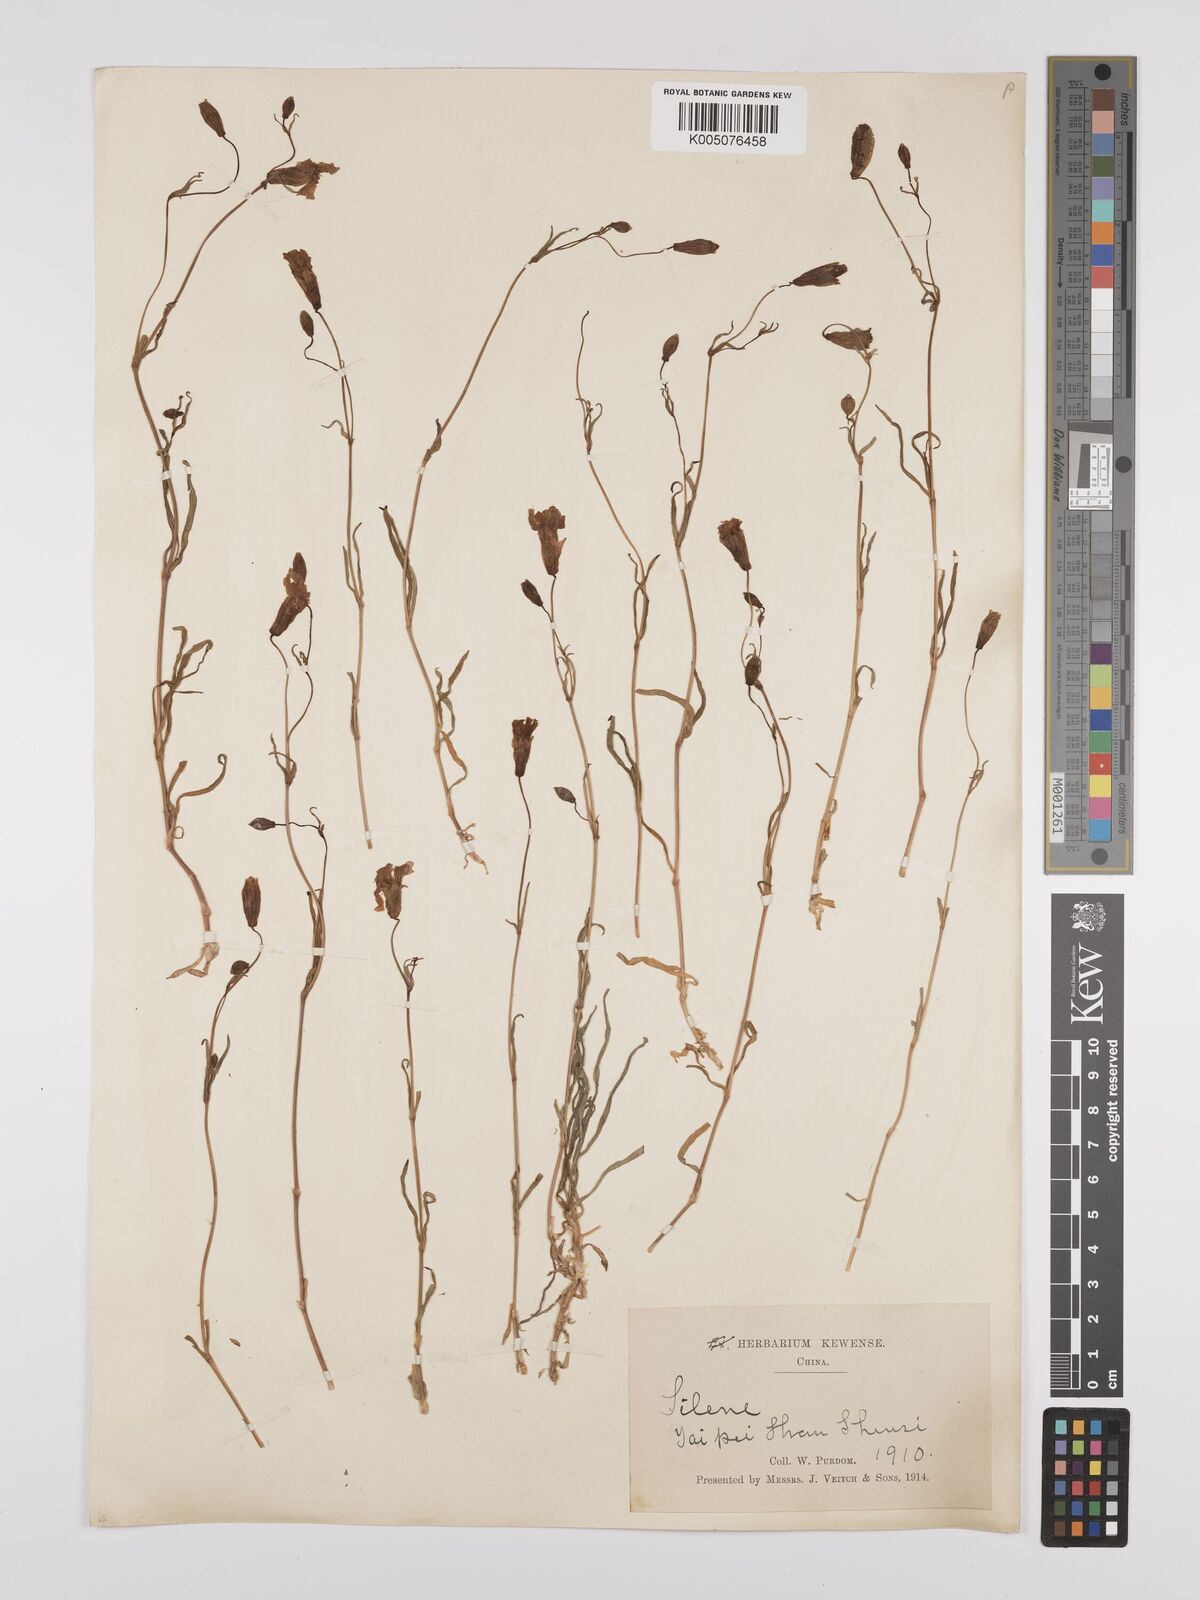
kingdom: Plantae
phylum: Tracheophyta
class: Magnoliopsida
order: Caryophyllales
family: Caryophyllaceae
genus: Silene
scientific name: Silene
